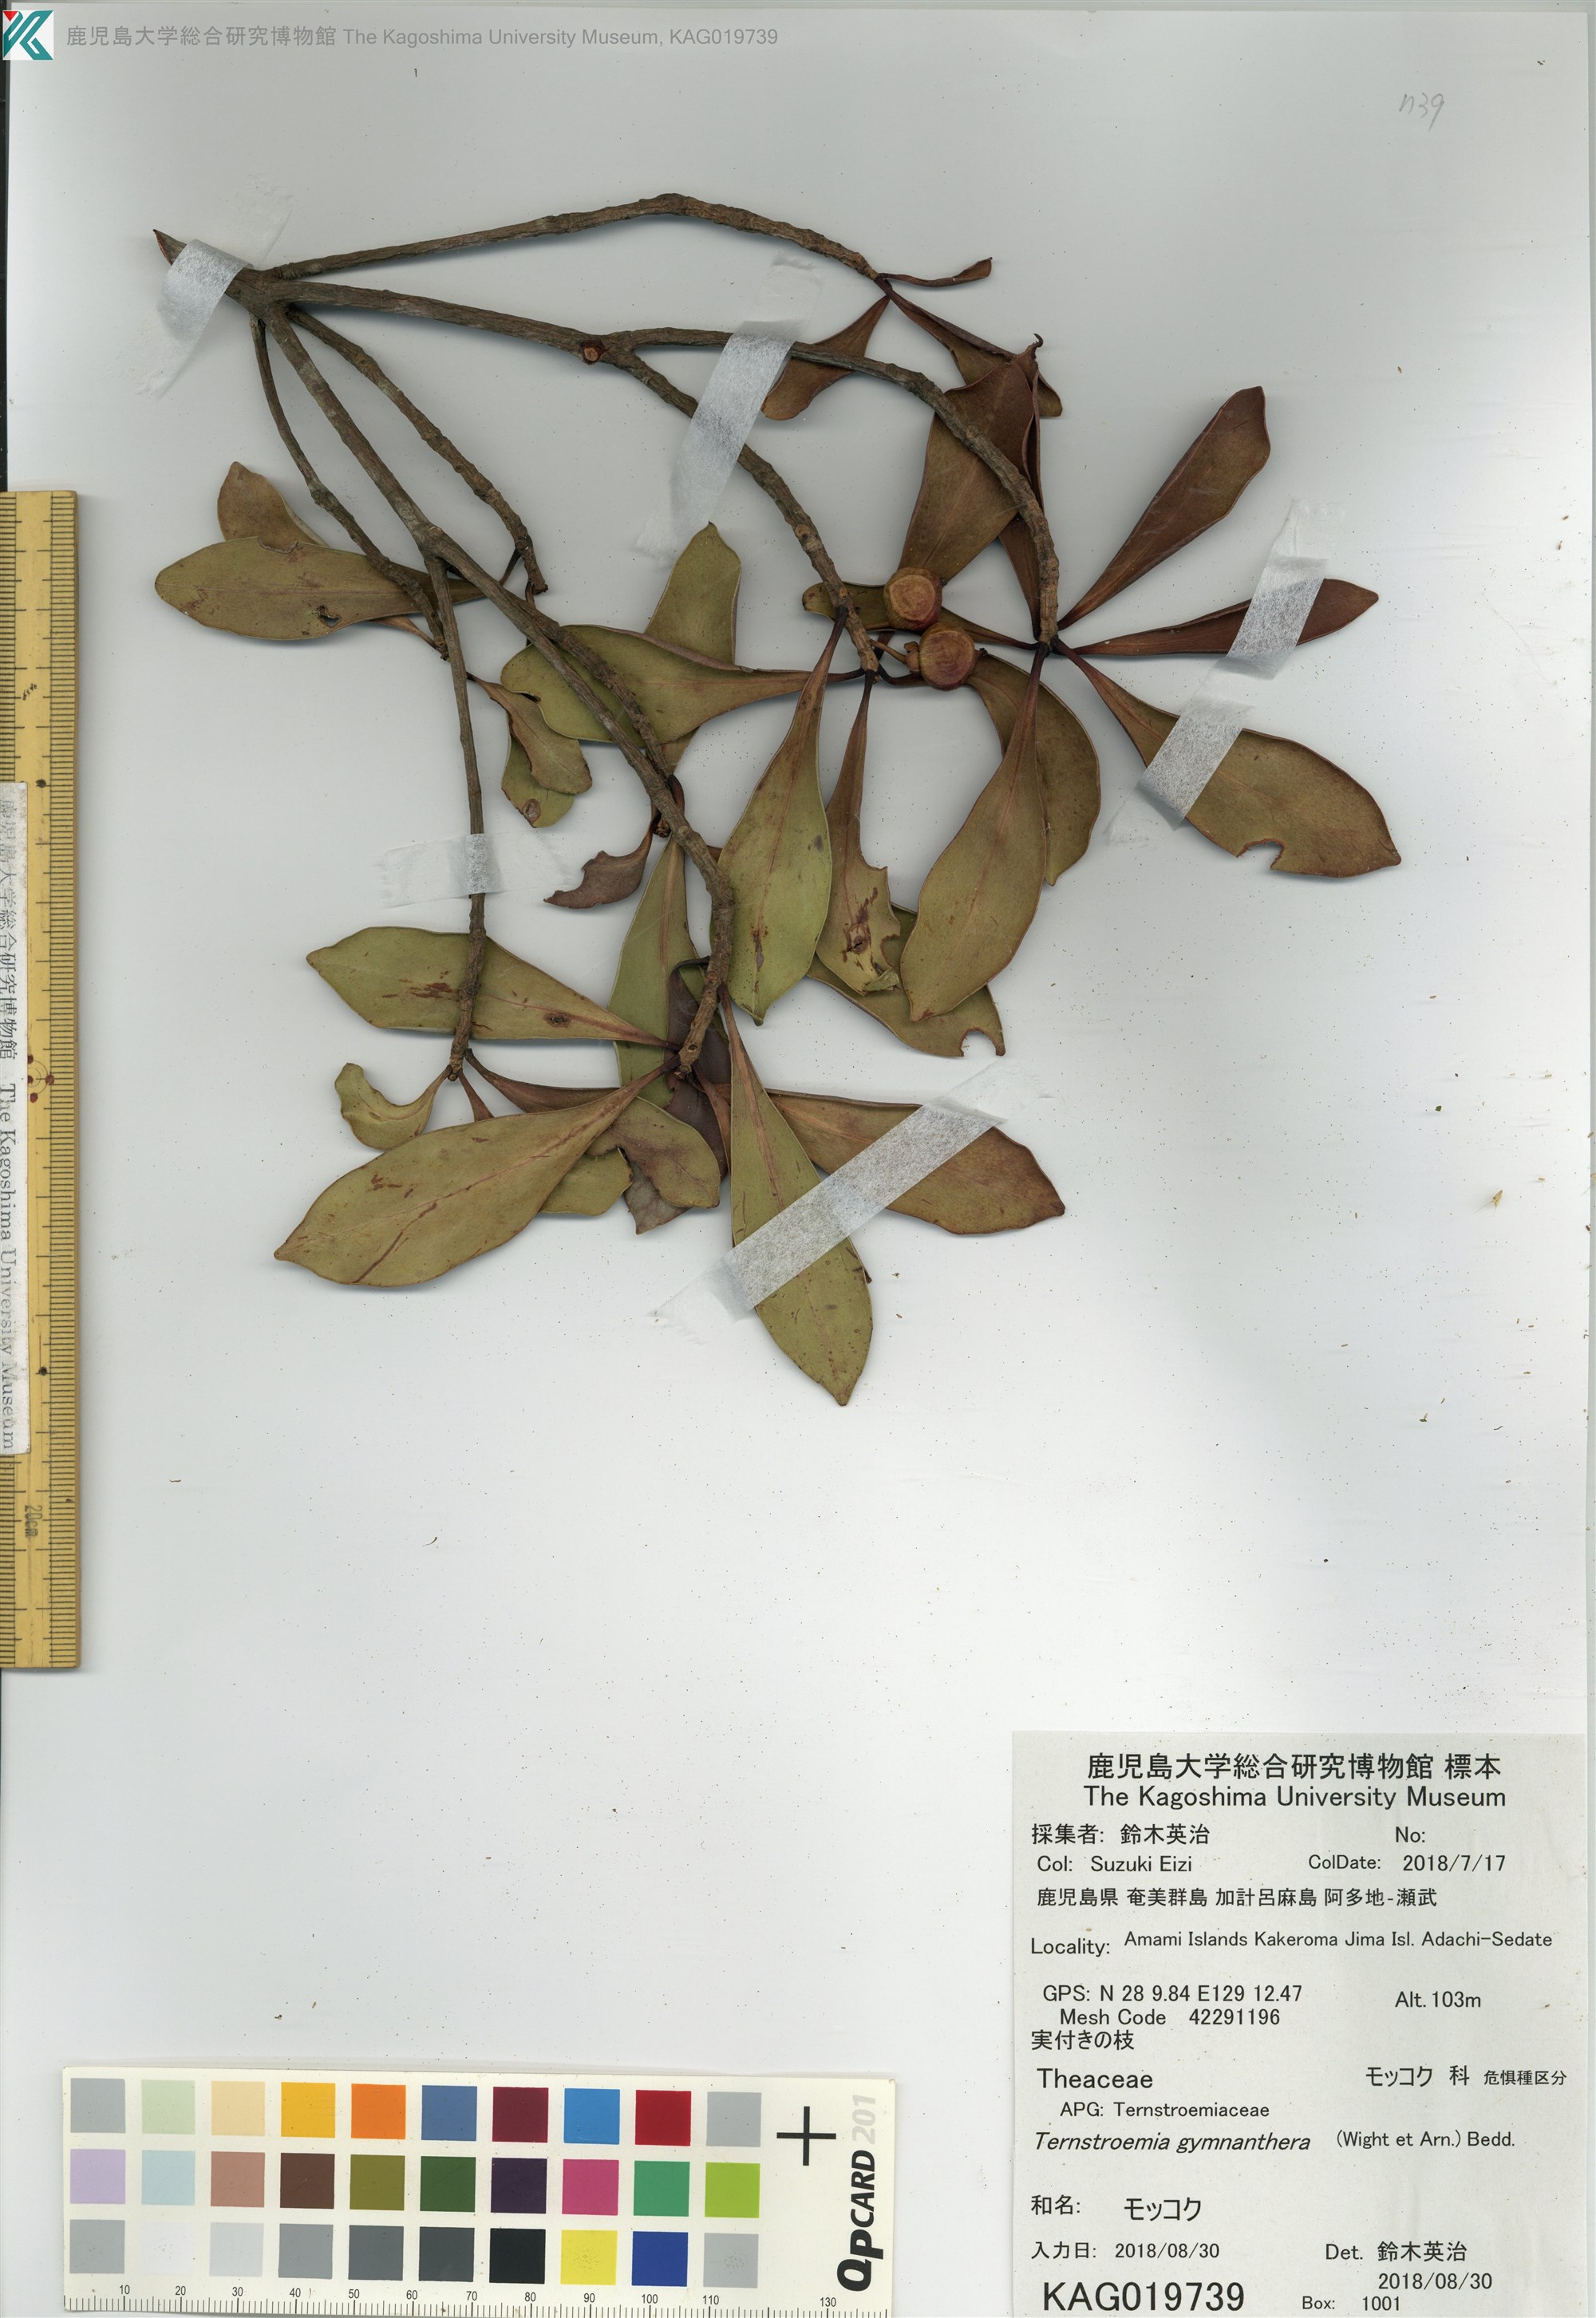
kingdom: Plantae
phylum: Tracheophyta
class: Magnoliopsida
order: Ericales
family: Pentaphylacaceae
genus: Ternstroemia
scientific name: Ternstroemia gymnanthera
